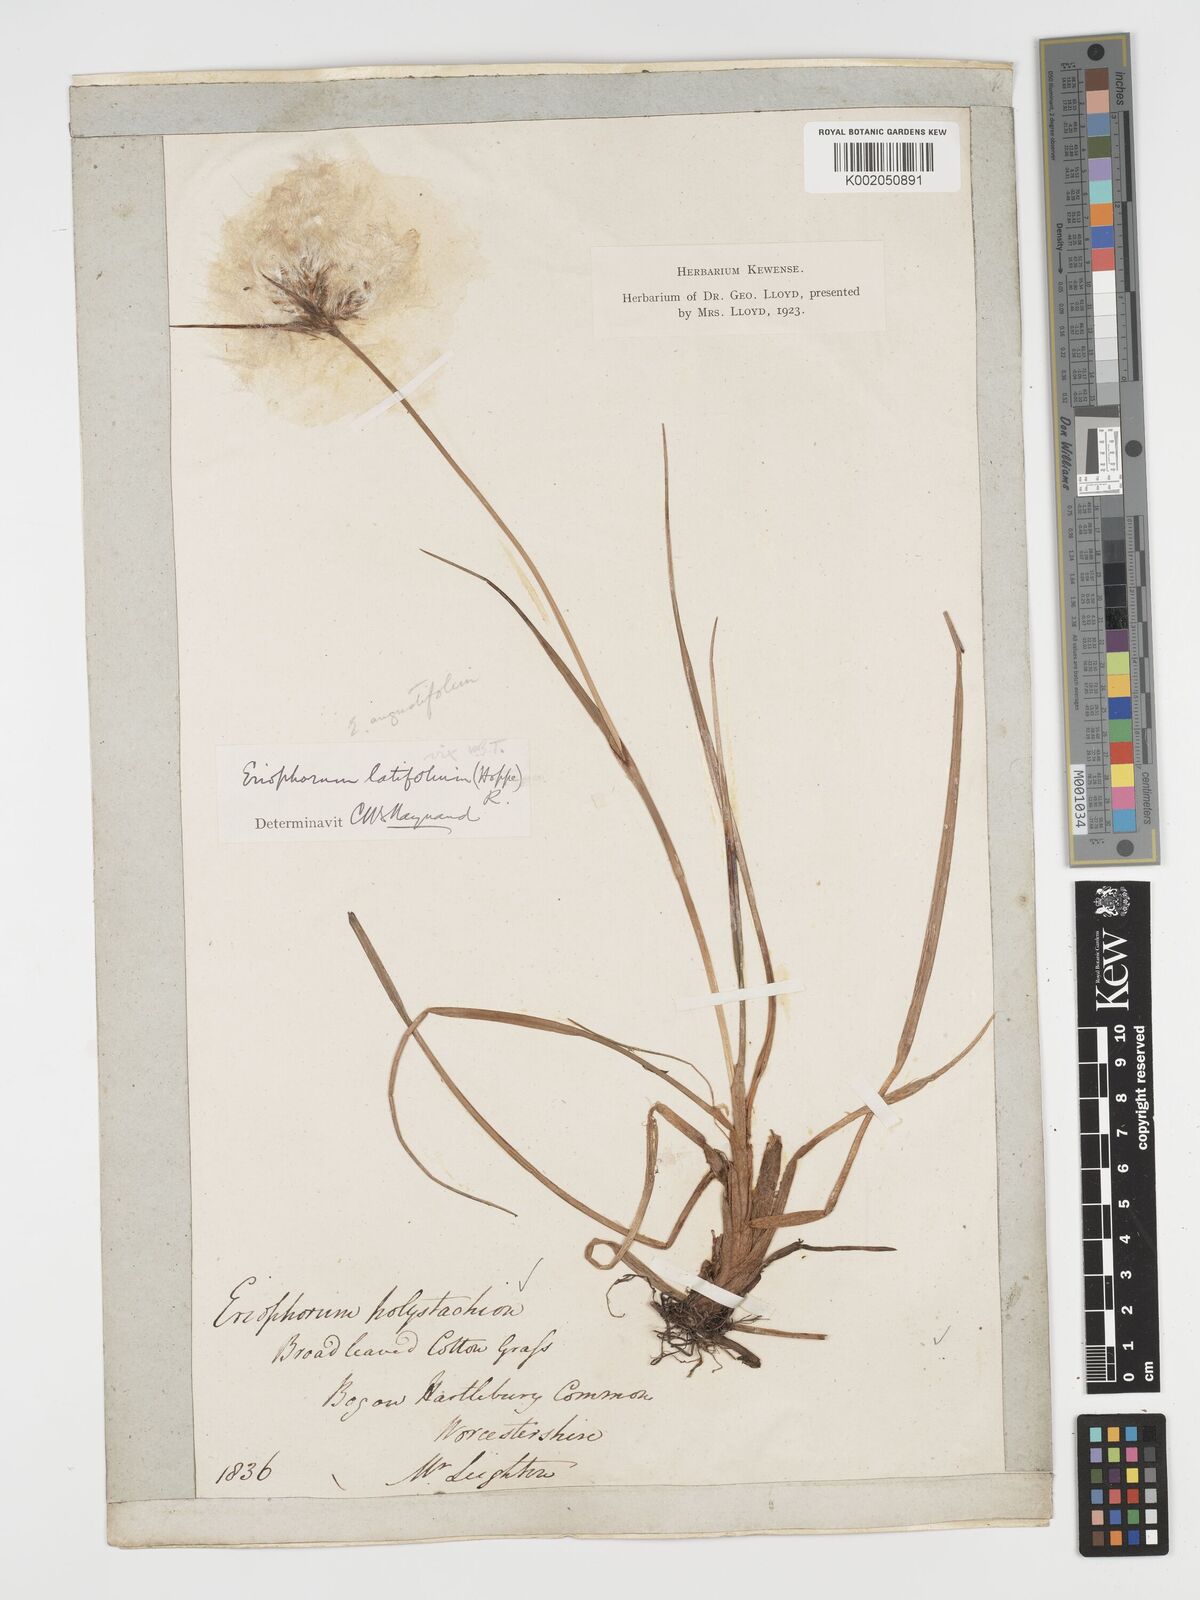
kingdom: Plantae
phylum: Tracheophyta
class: Liliopsida
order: Poales
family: Cyperaceae
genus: Eriophorum
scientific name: Eriophorum angustifolium
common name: Common cottongrass
